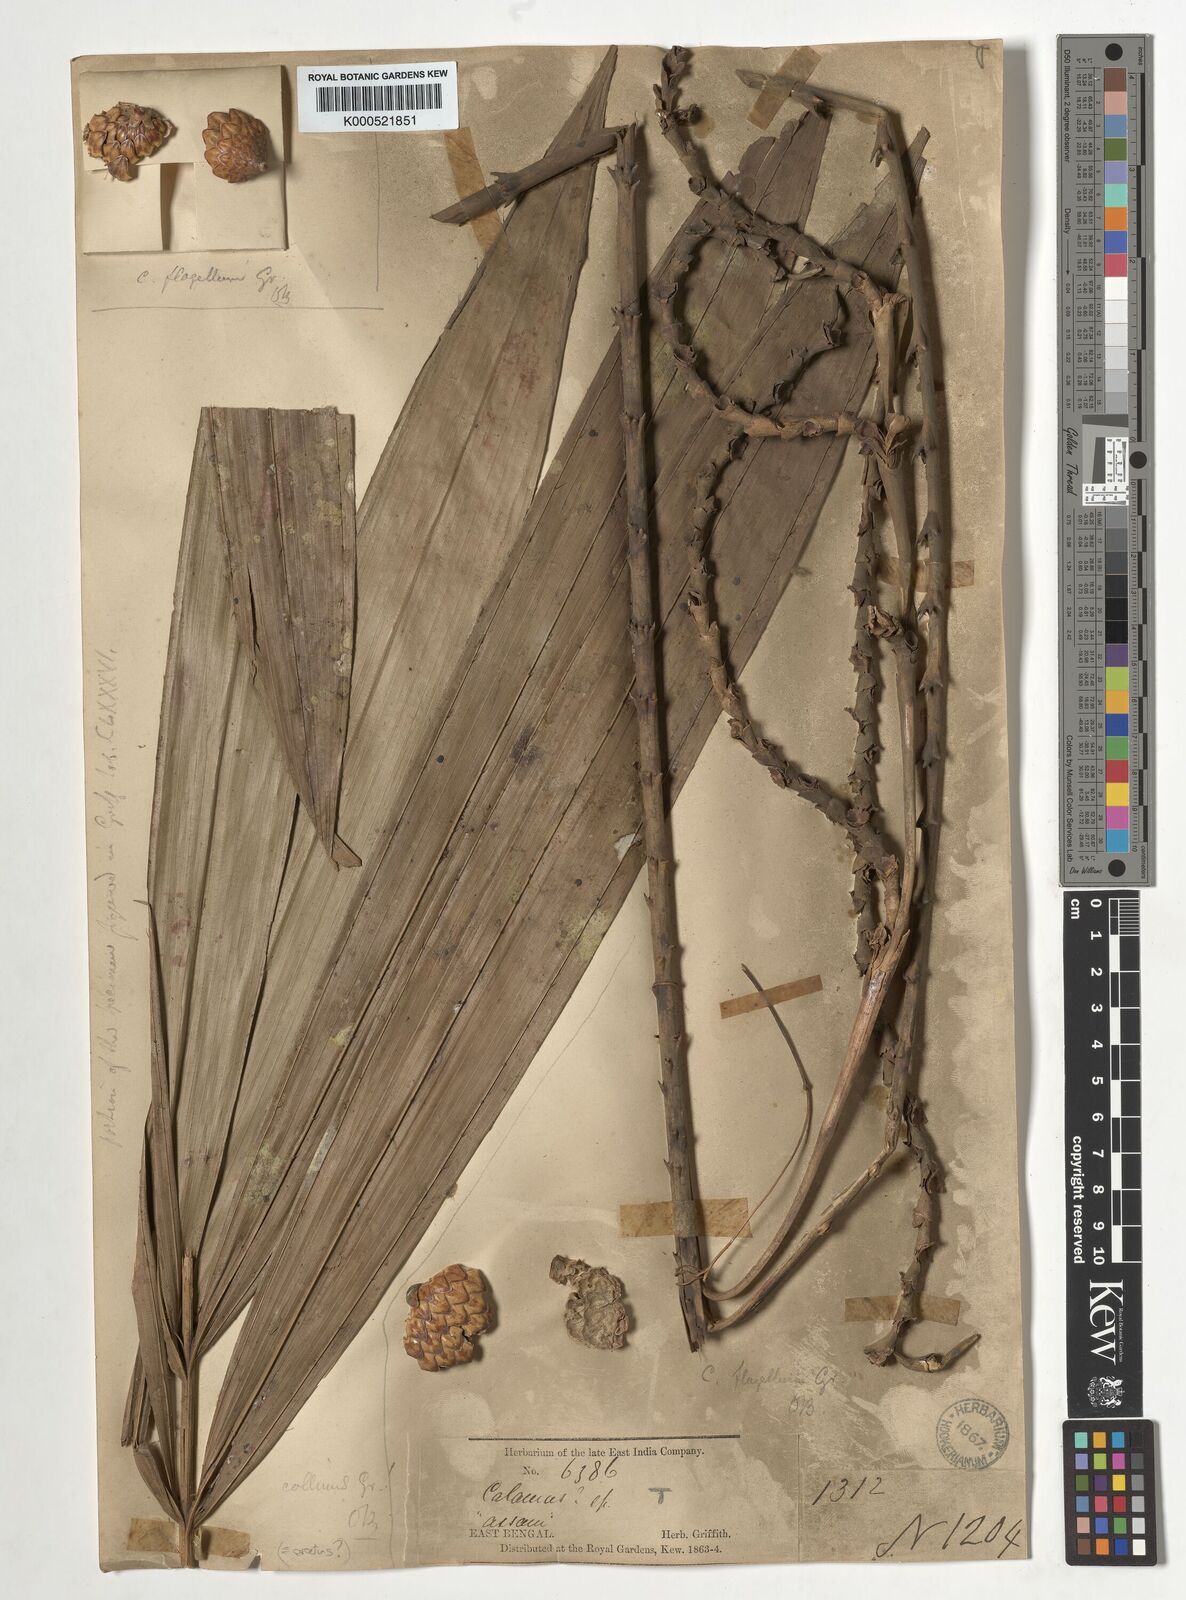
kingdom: Plantae
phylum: Tracheophyta
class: Liliopsida
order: Arecales
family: Arecaceae
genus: Calamus
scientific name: Calamus flagellum
